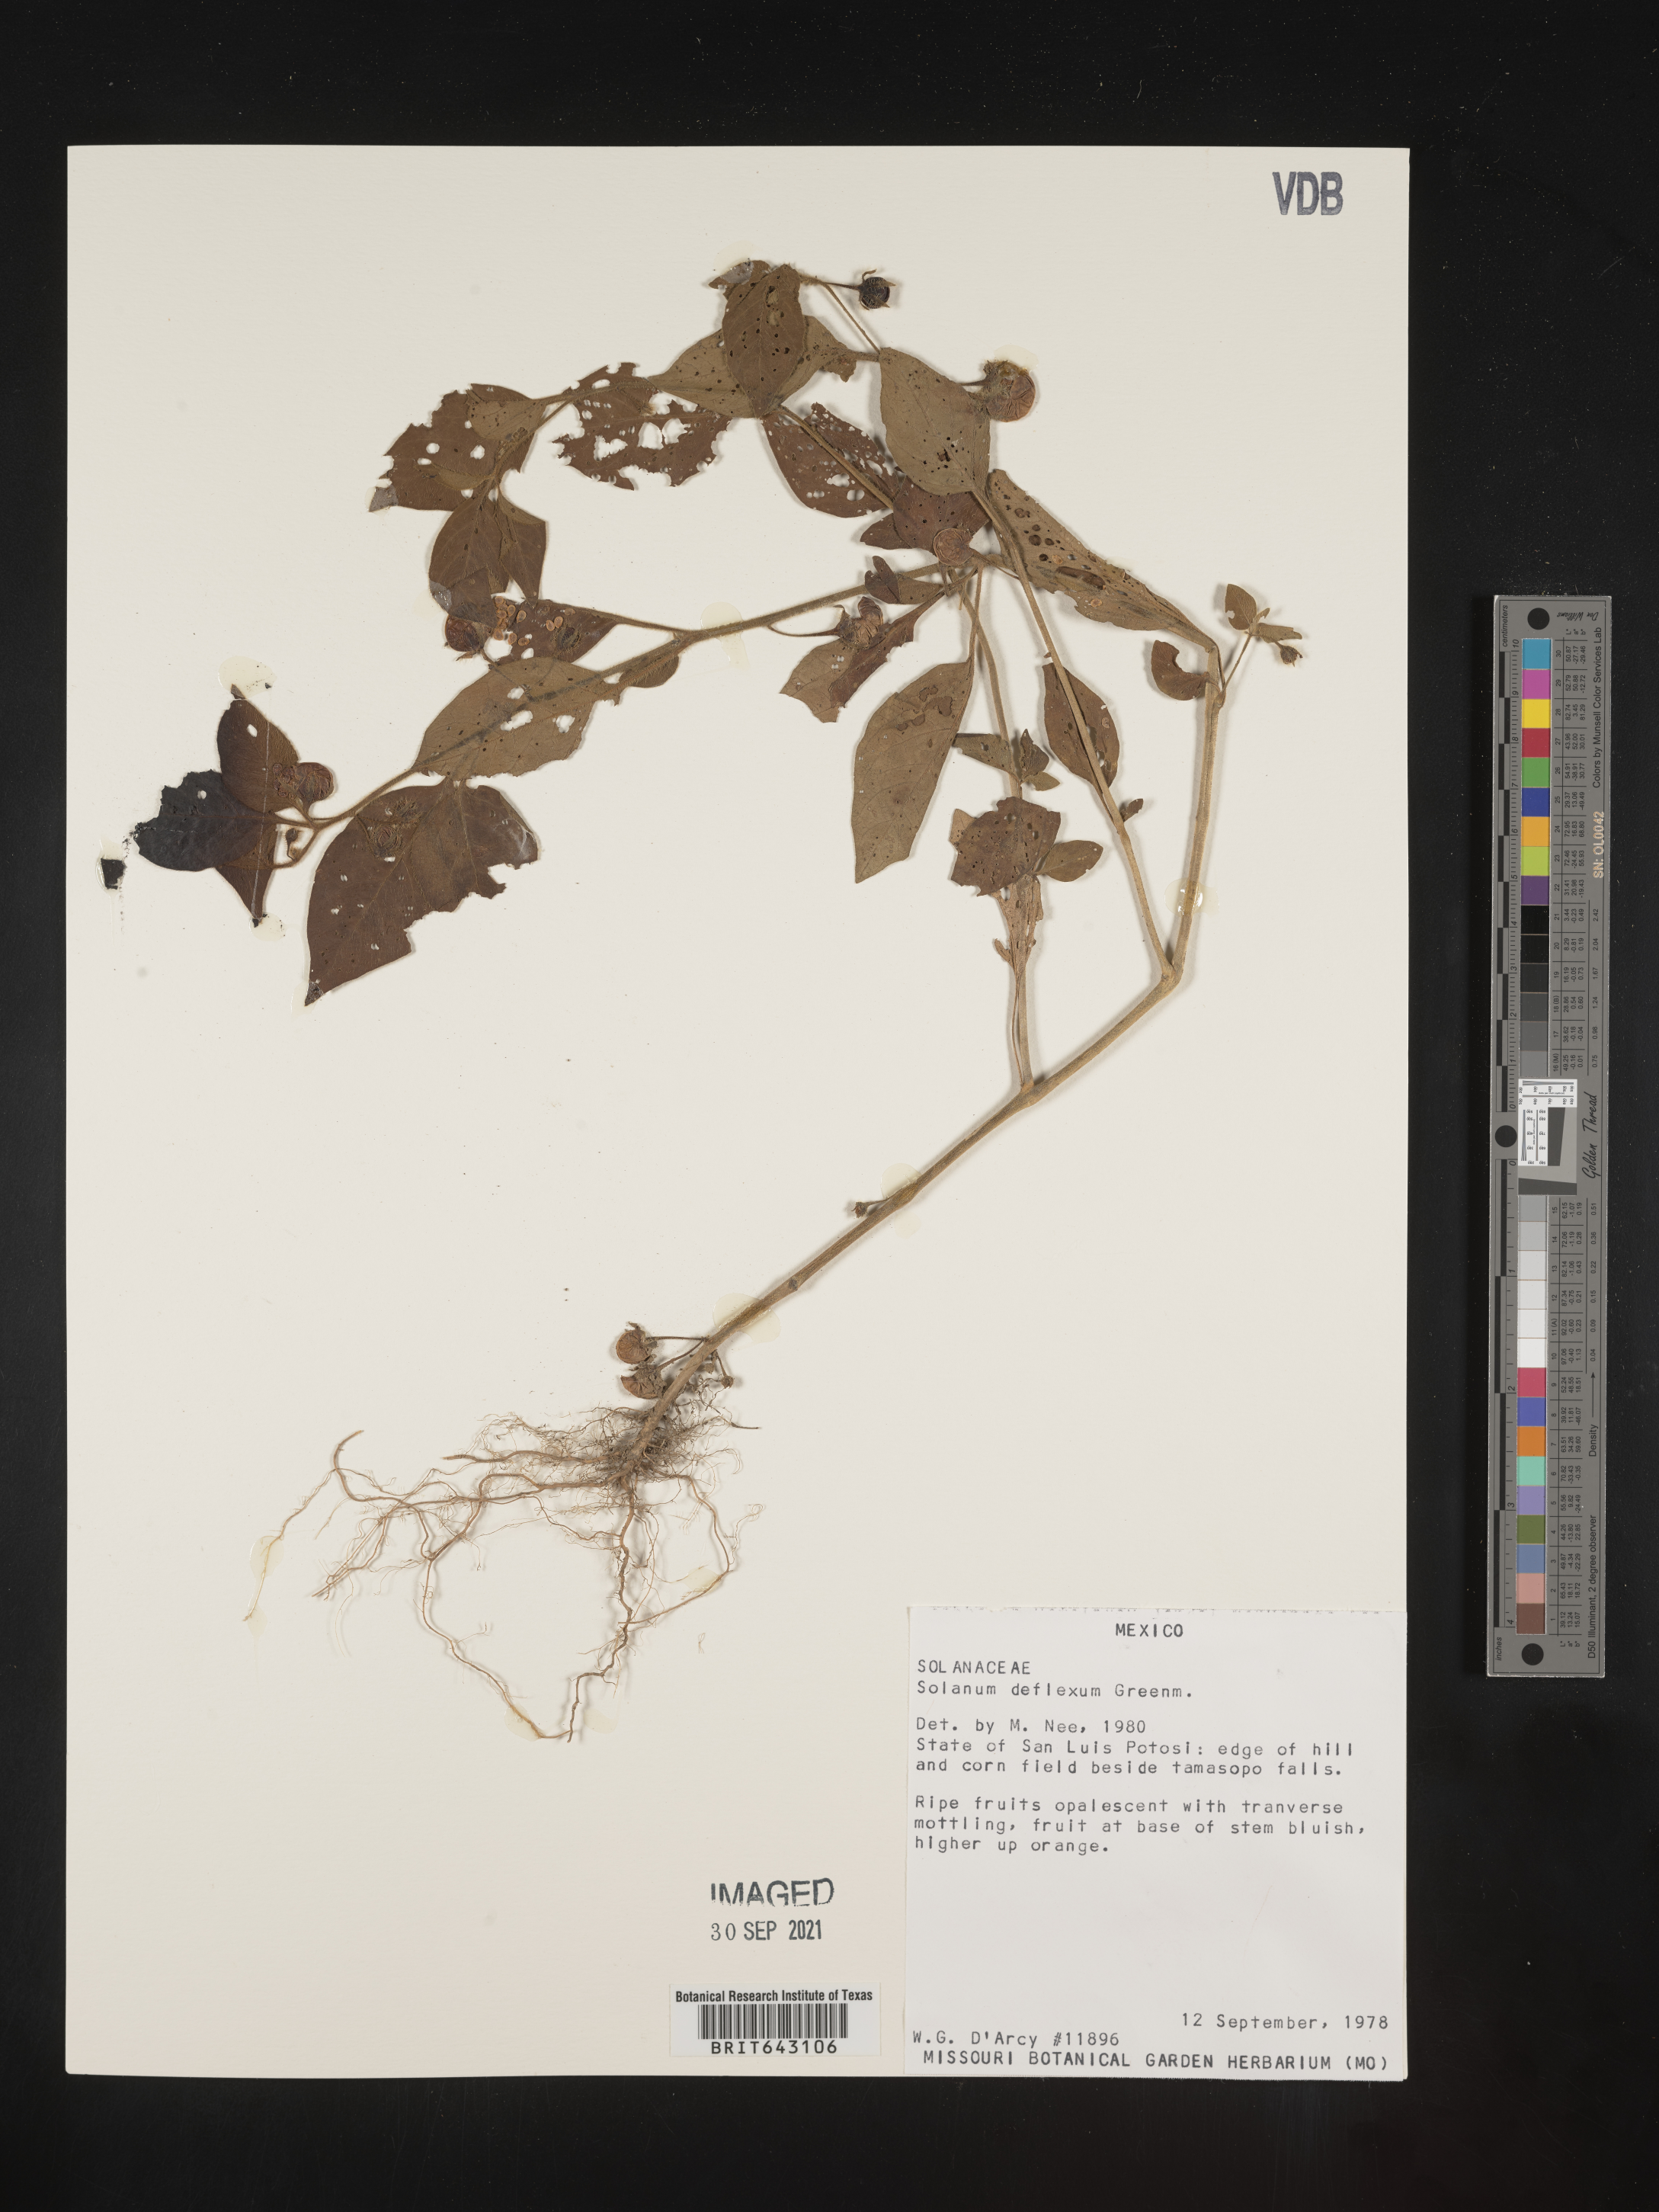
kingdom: Plantae
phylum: Tracheophyta
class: Magnoliopsida
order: Solanales
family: Solanaceae
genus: Solanum
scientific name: Solanum
